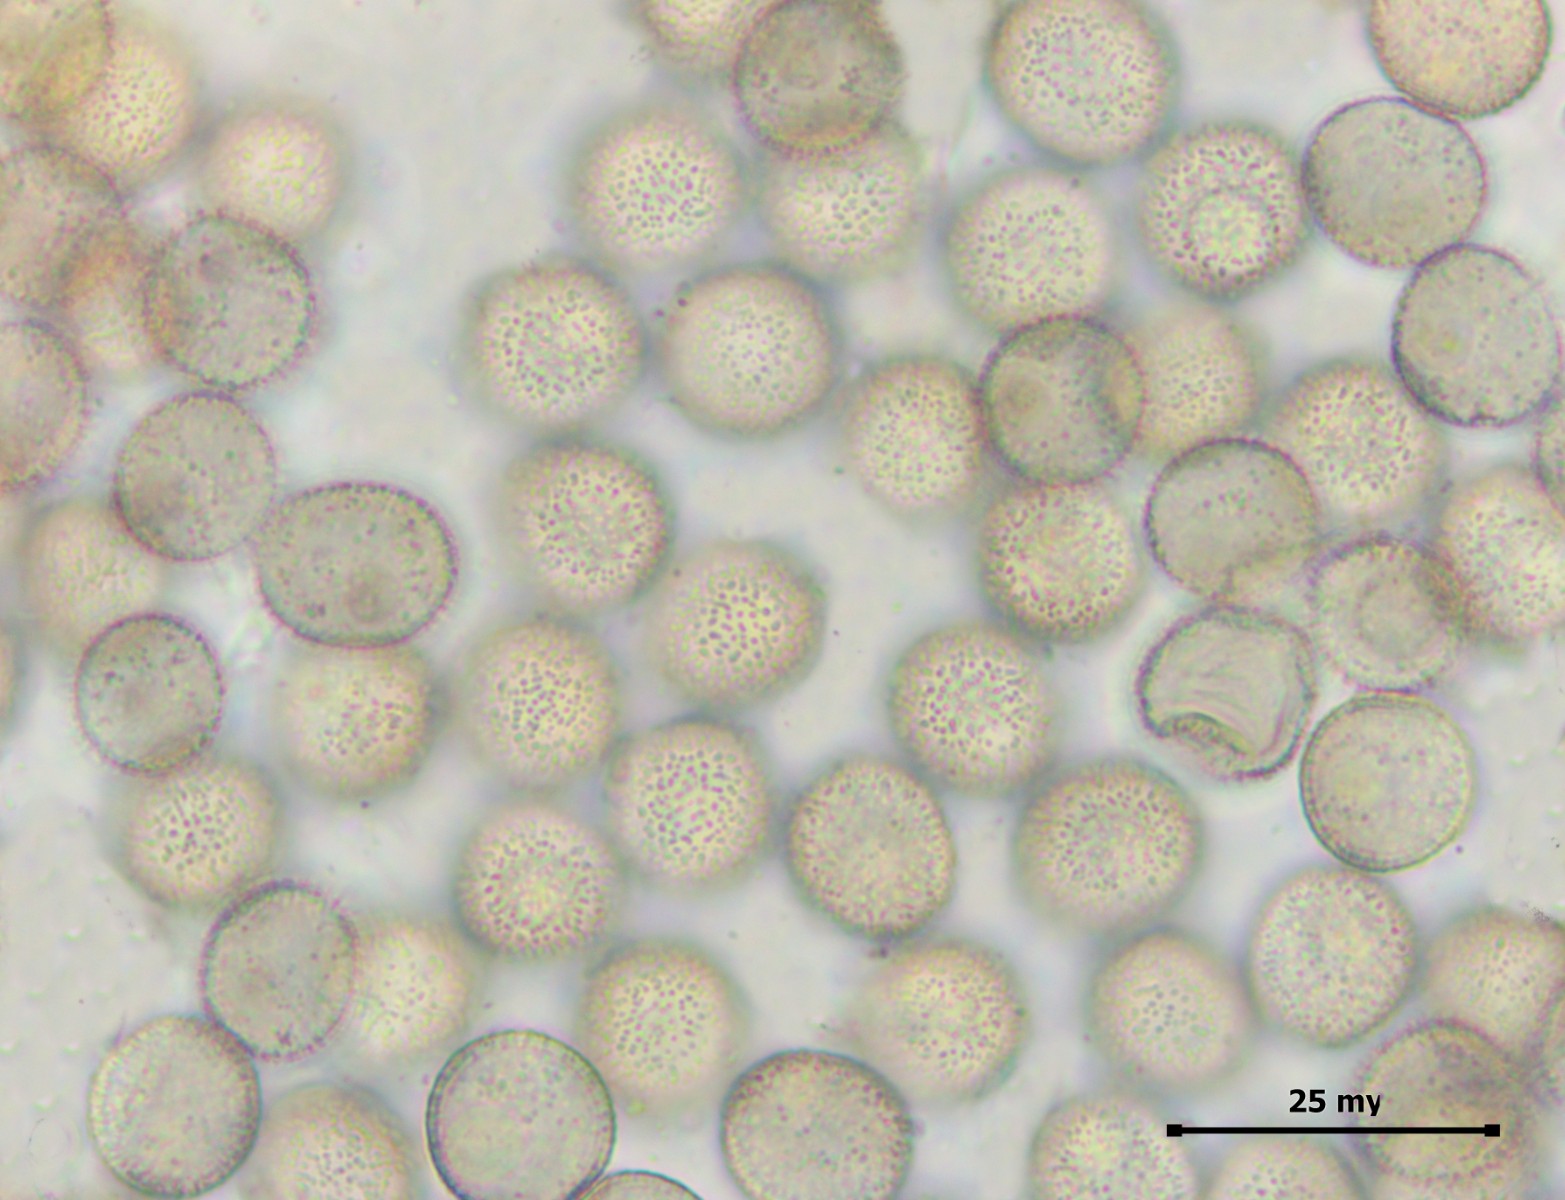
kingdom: Protozoa
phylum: Mycetozoa
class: Myxomycetes
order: Cribrariales
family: Liceaceae
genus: Licea
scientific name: Licea variabilis
